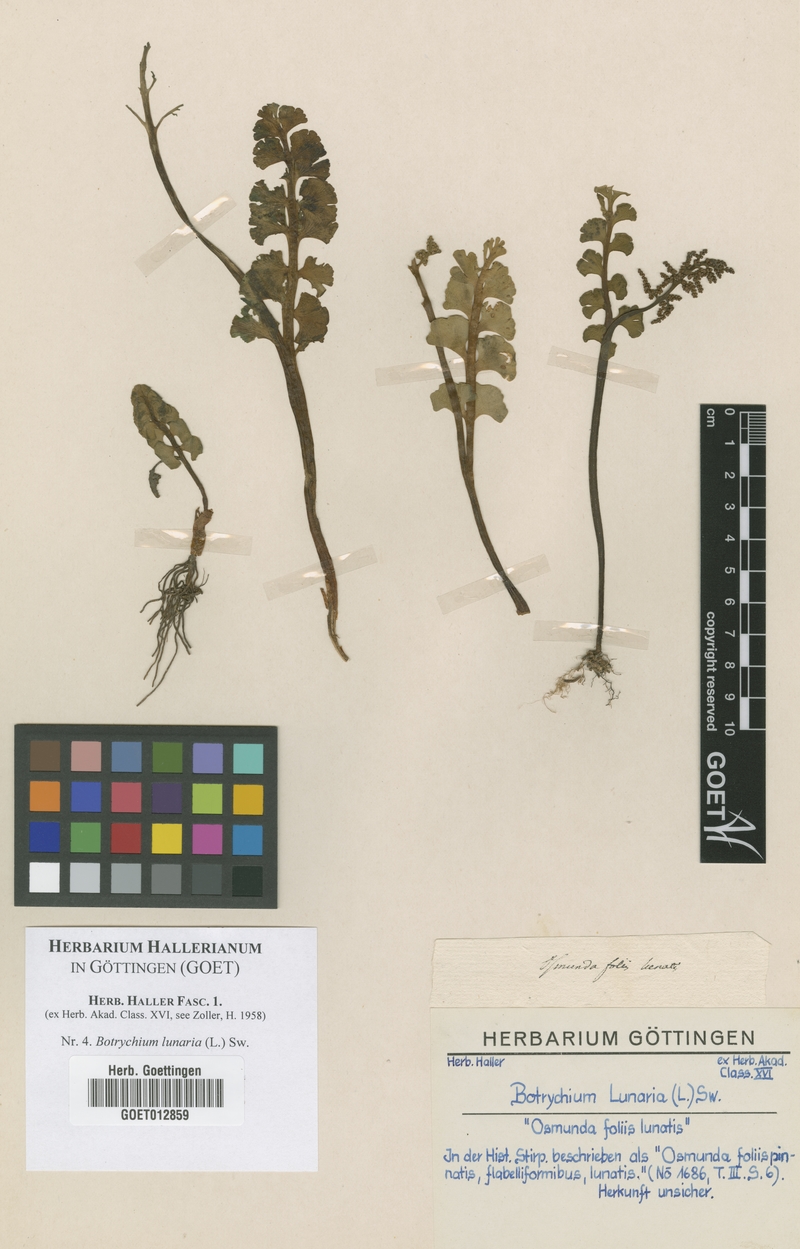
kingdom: Plantae
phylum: Tracheophyta
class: Polypodiopsida
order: Ophioglossales
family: Ophioglossaceae
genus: Botrychium
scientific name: Botrychium lunaria
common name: Moonwort
